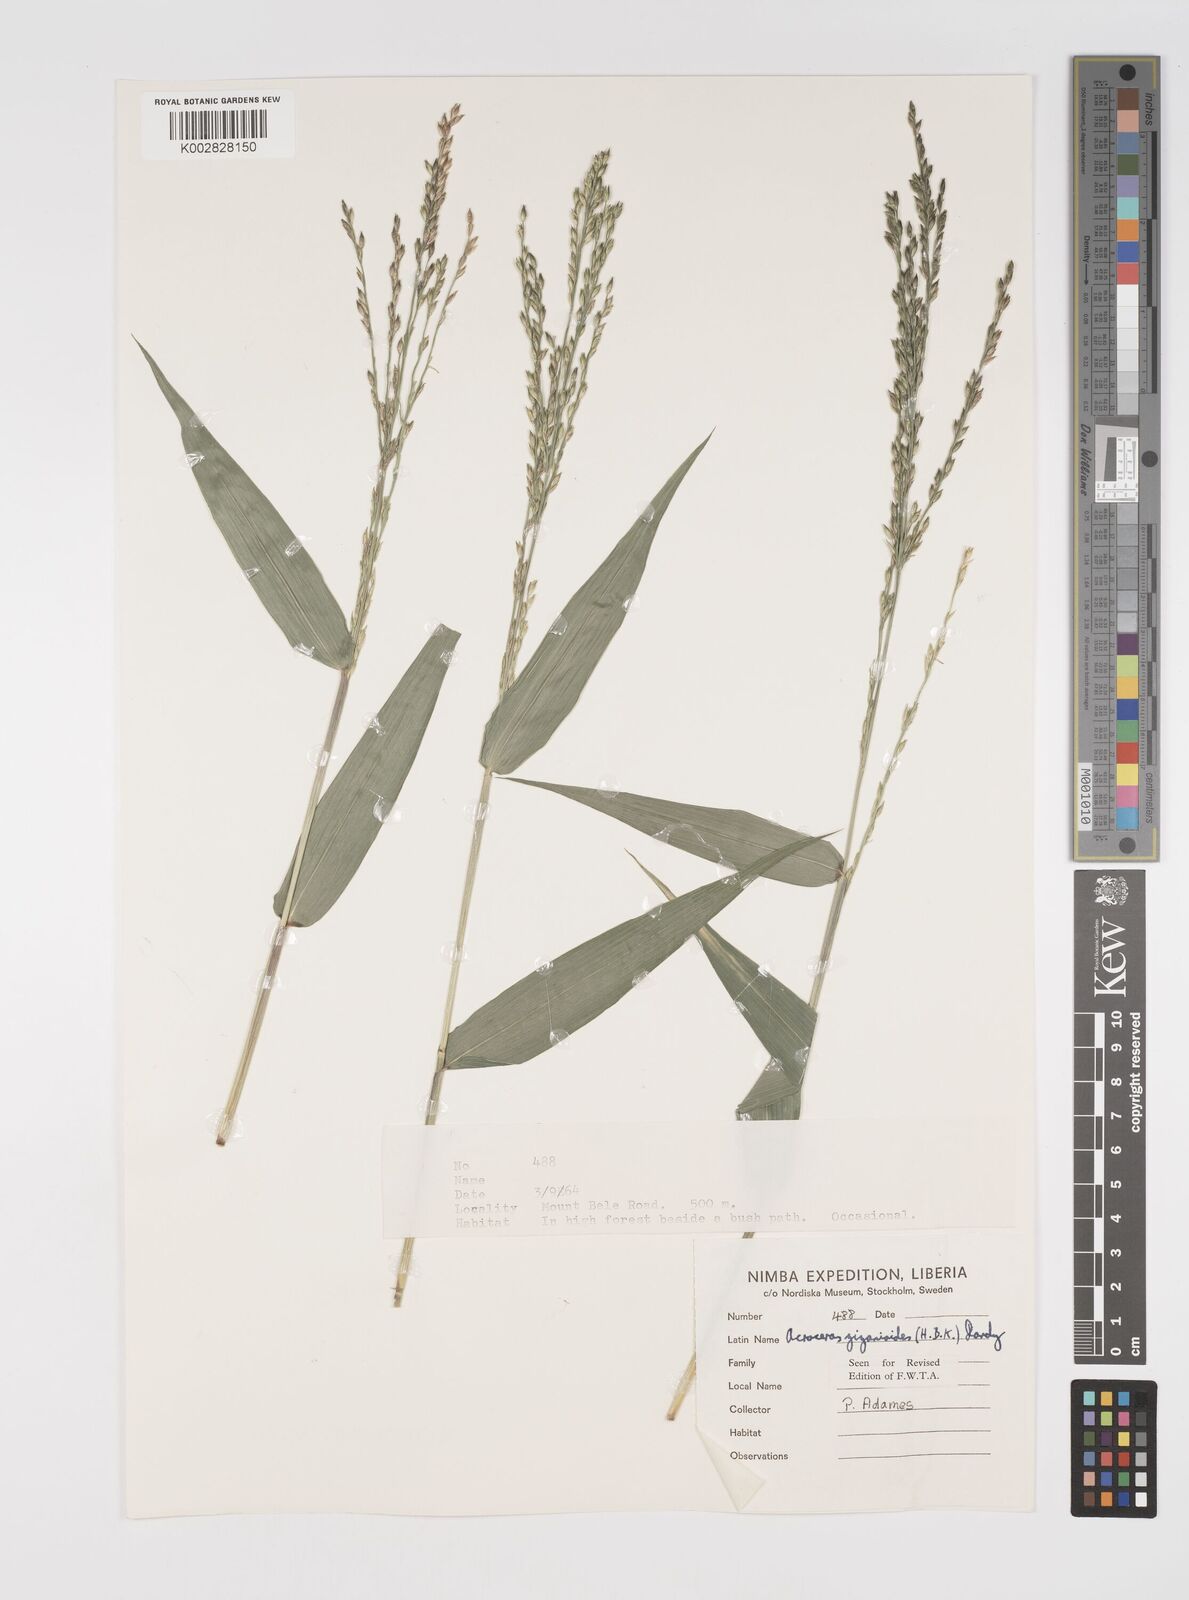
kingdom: Plantae
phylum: Tracheophyta
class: Liliopsida
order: Poales
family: Poaceae
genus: Acroceras
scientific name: Acroceras zizanioides
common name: Oat grass
